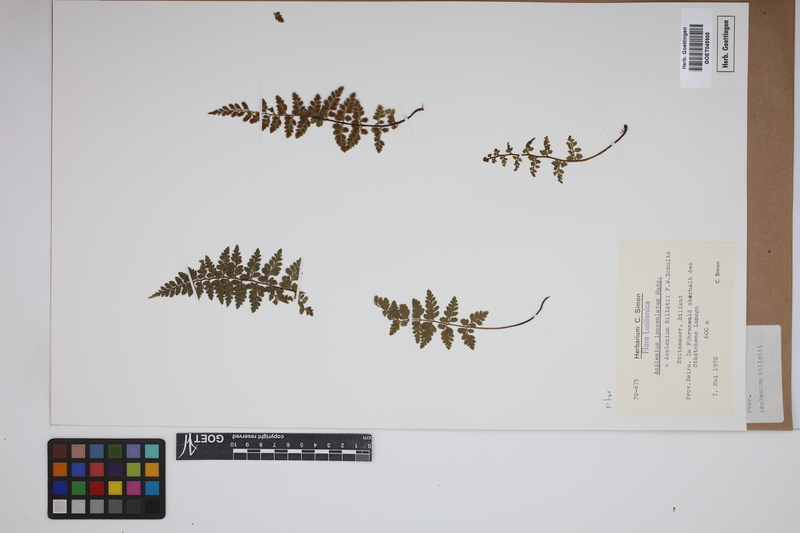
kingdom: Plantae
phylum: Tracheophyta
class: Polypodiopsida
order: Polypodiales
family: Aspleniaceae
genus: Asplenium
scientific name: Asplenium obovatum
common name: Lanceolate spleenwort
